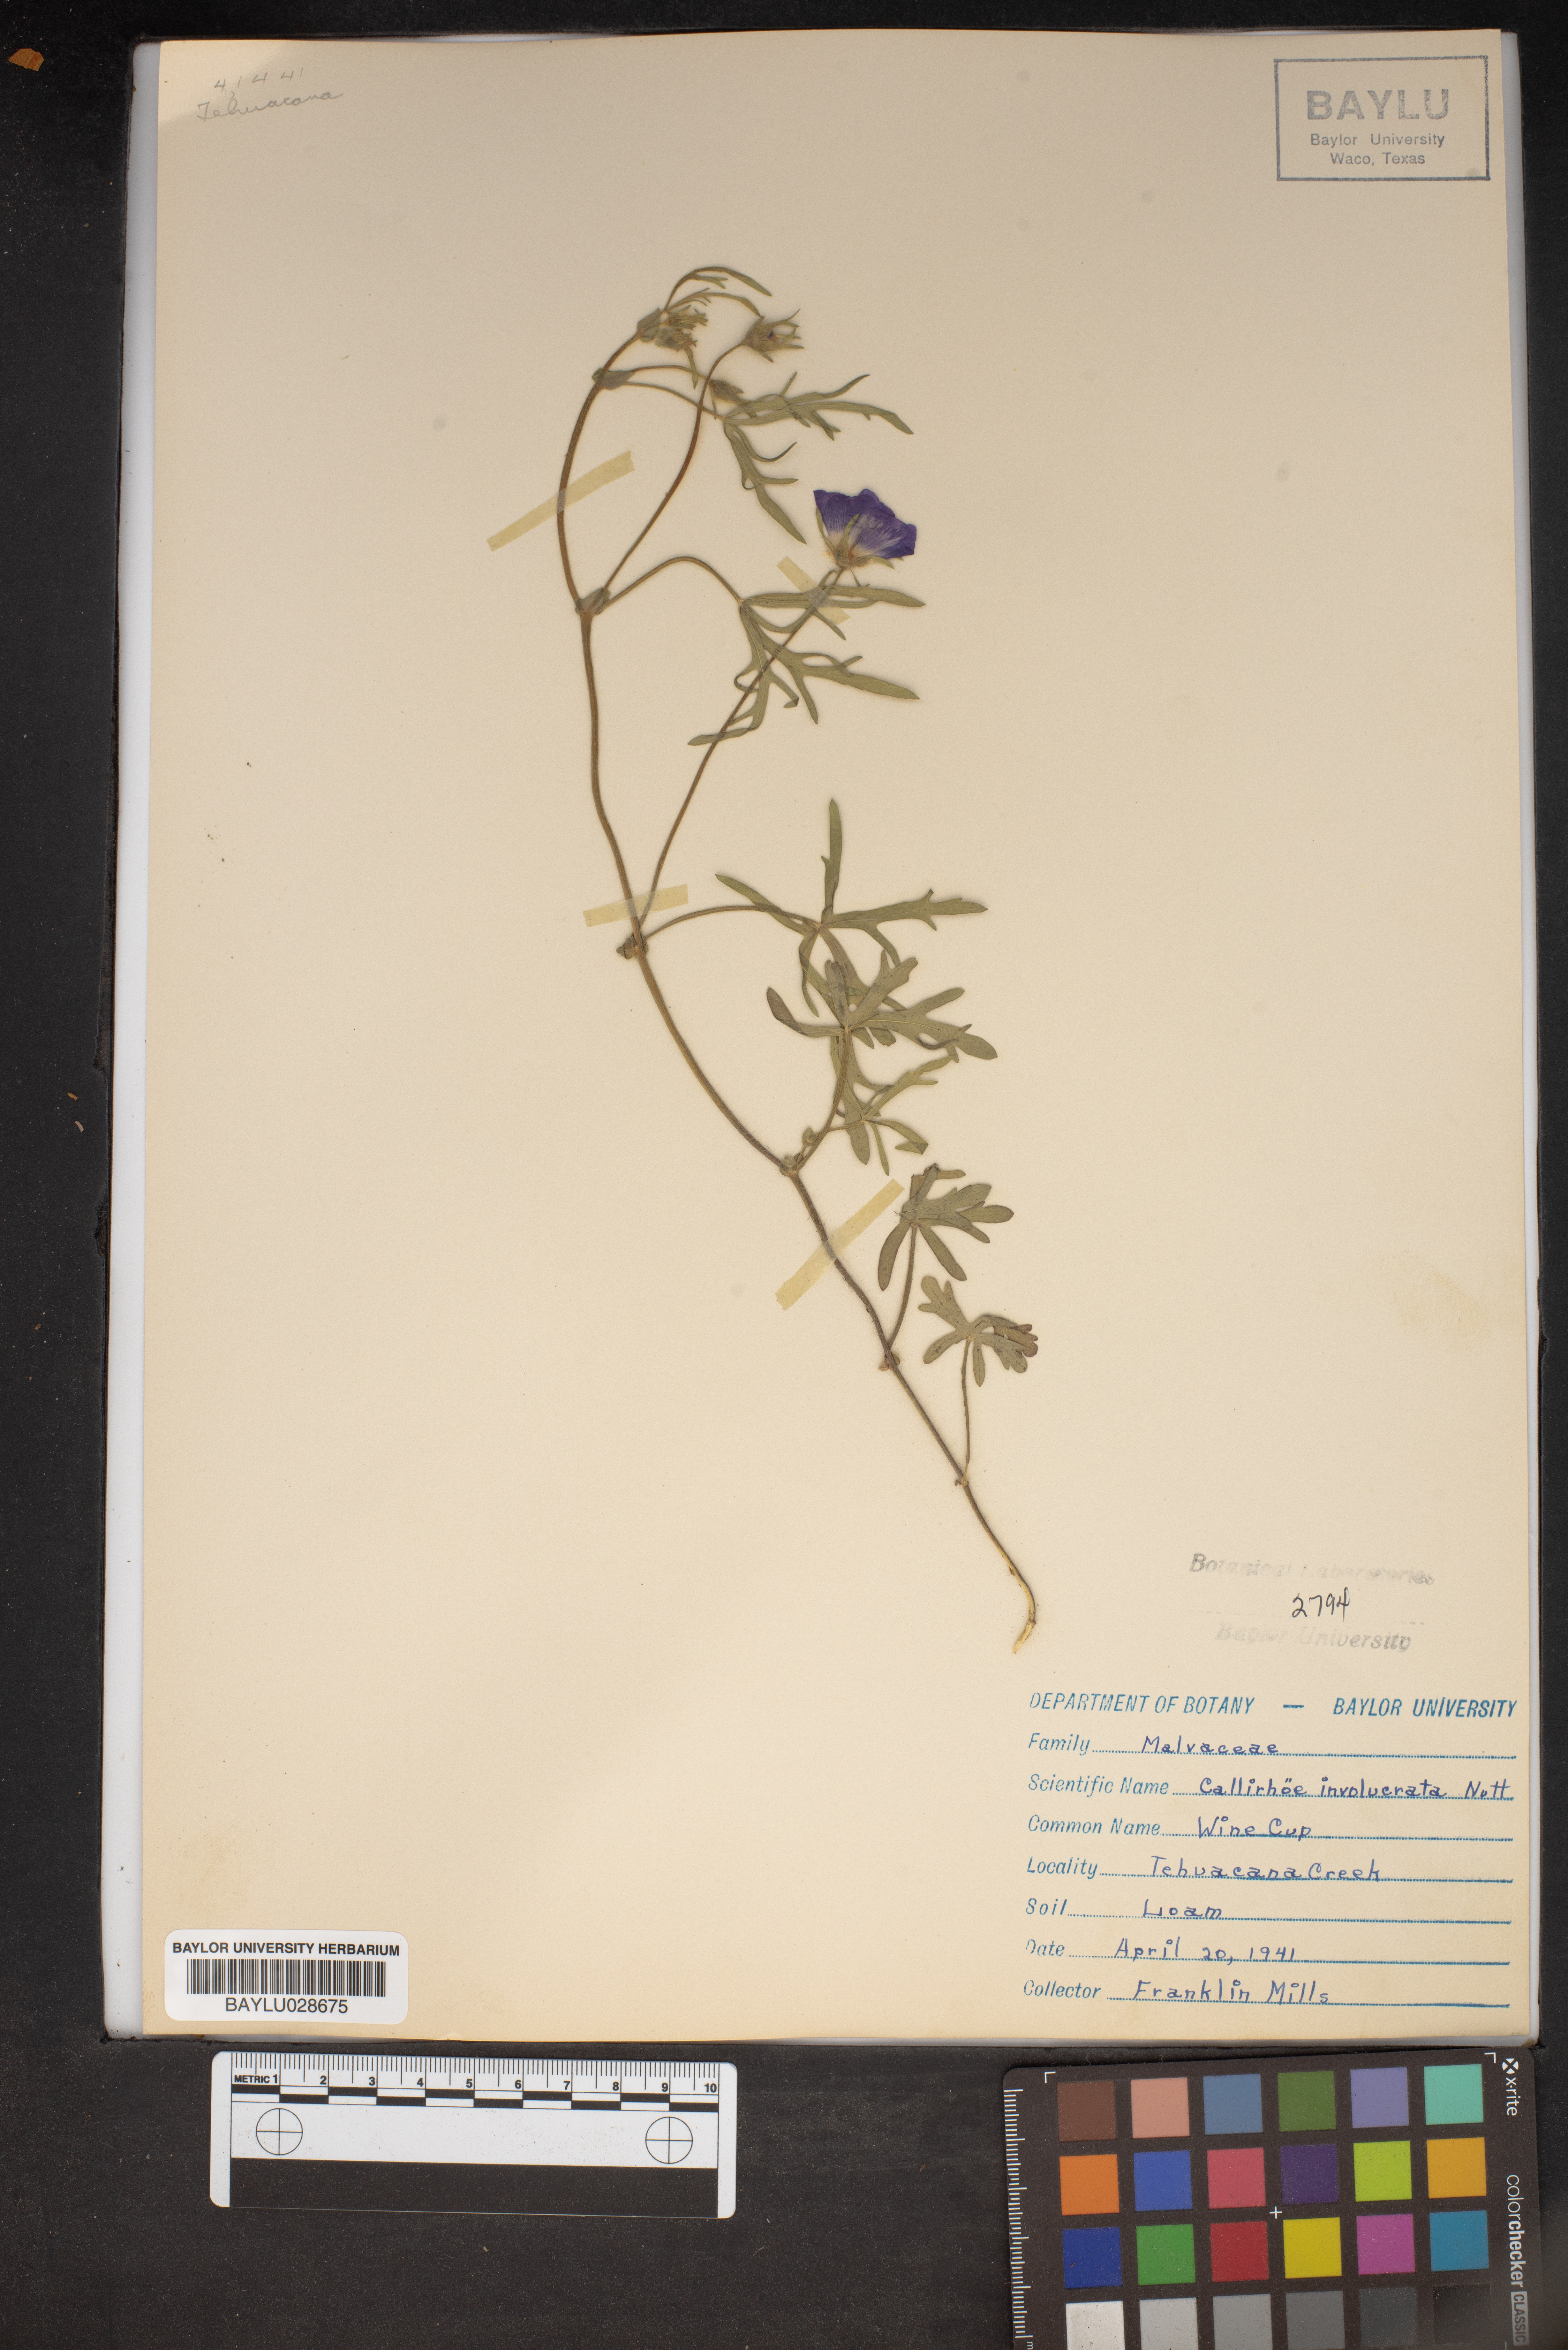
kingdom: Plantae
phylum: Tracheophyta
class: Magnoliopsida
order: Malvales
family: Malvaceae
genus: Callirhoe
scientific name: Callirhoe involucrata
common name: Purple poppy-mallow
